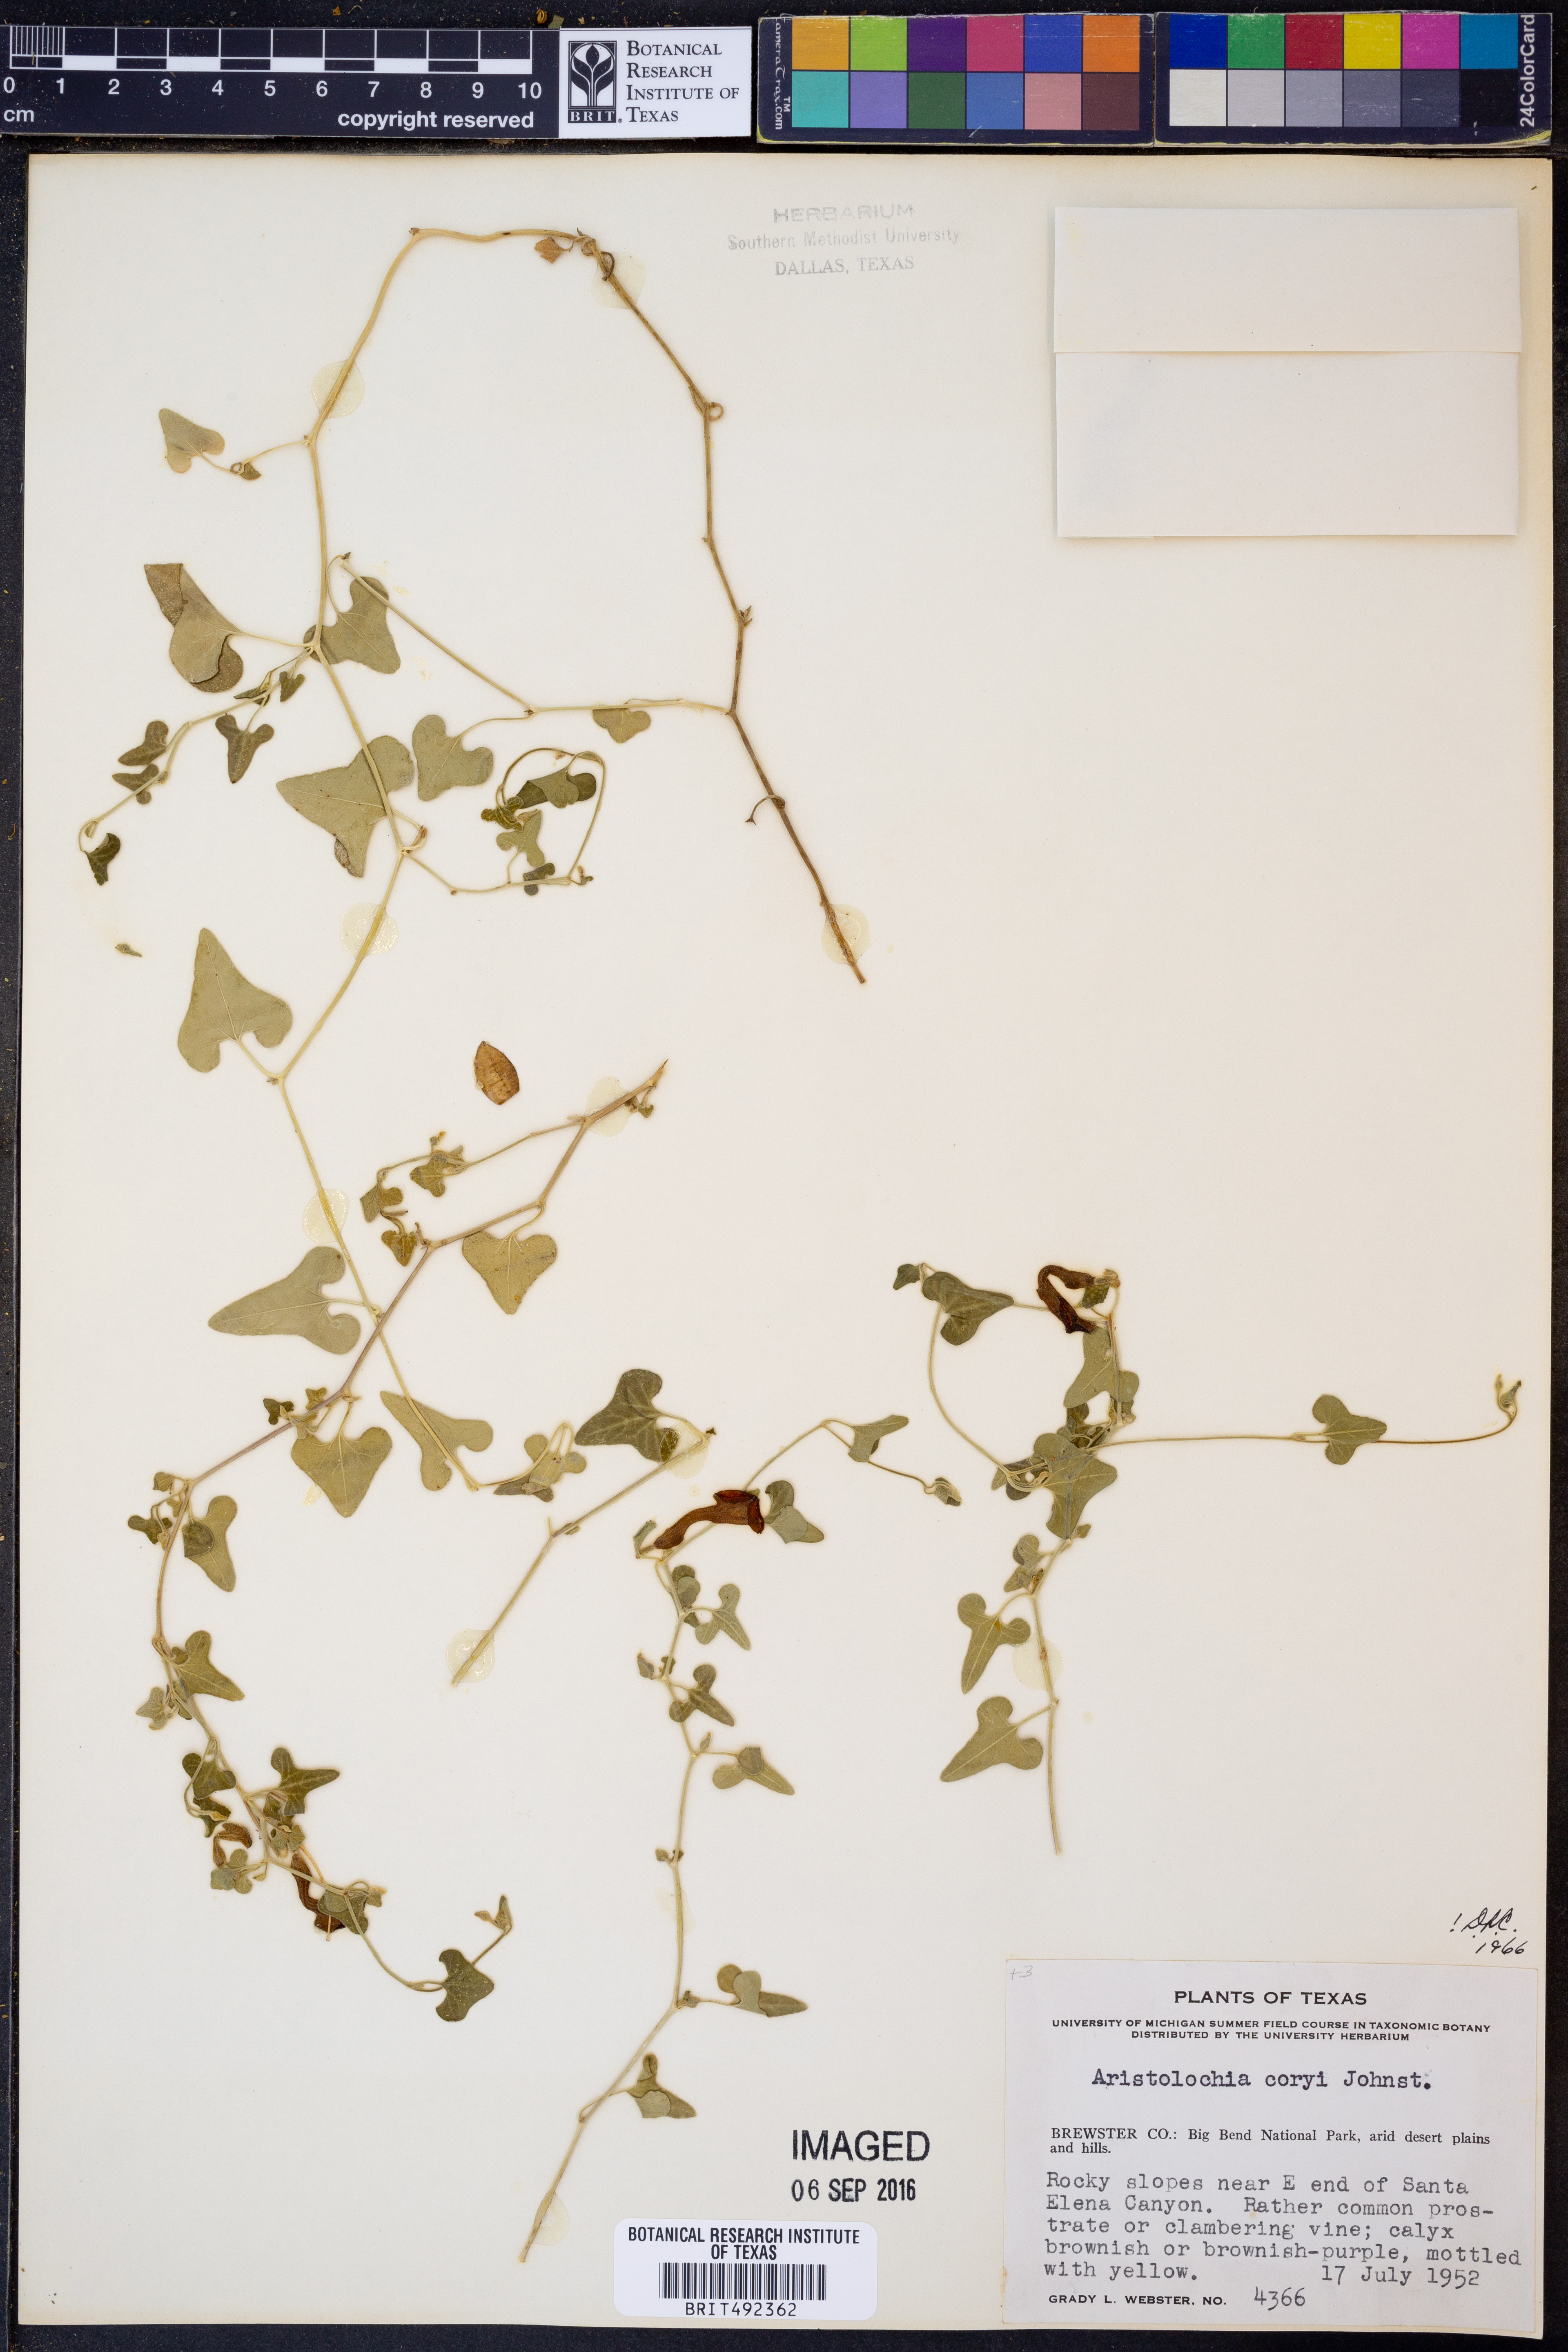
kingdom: Plantae
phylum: Tracheophyta
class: Magnoliopsida
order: Piperales
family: Aristolochiaceae
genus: Aristolochia
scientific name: Aristolochia coryi
